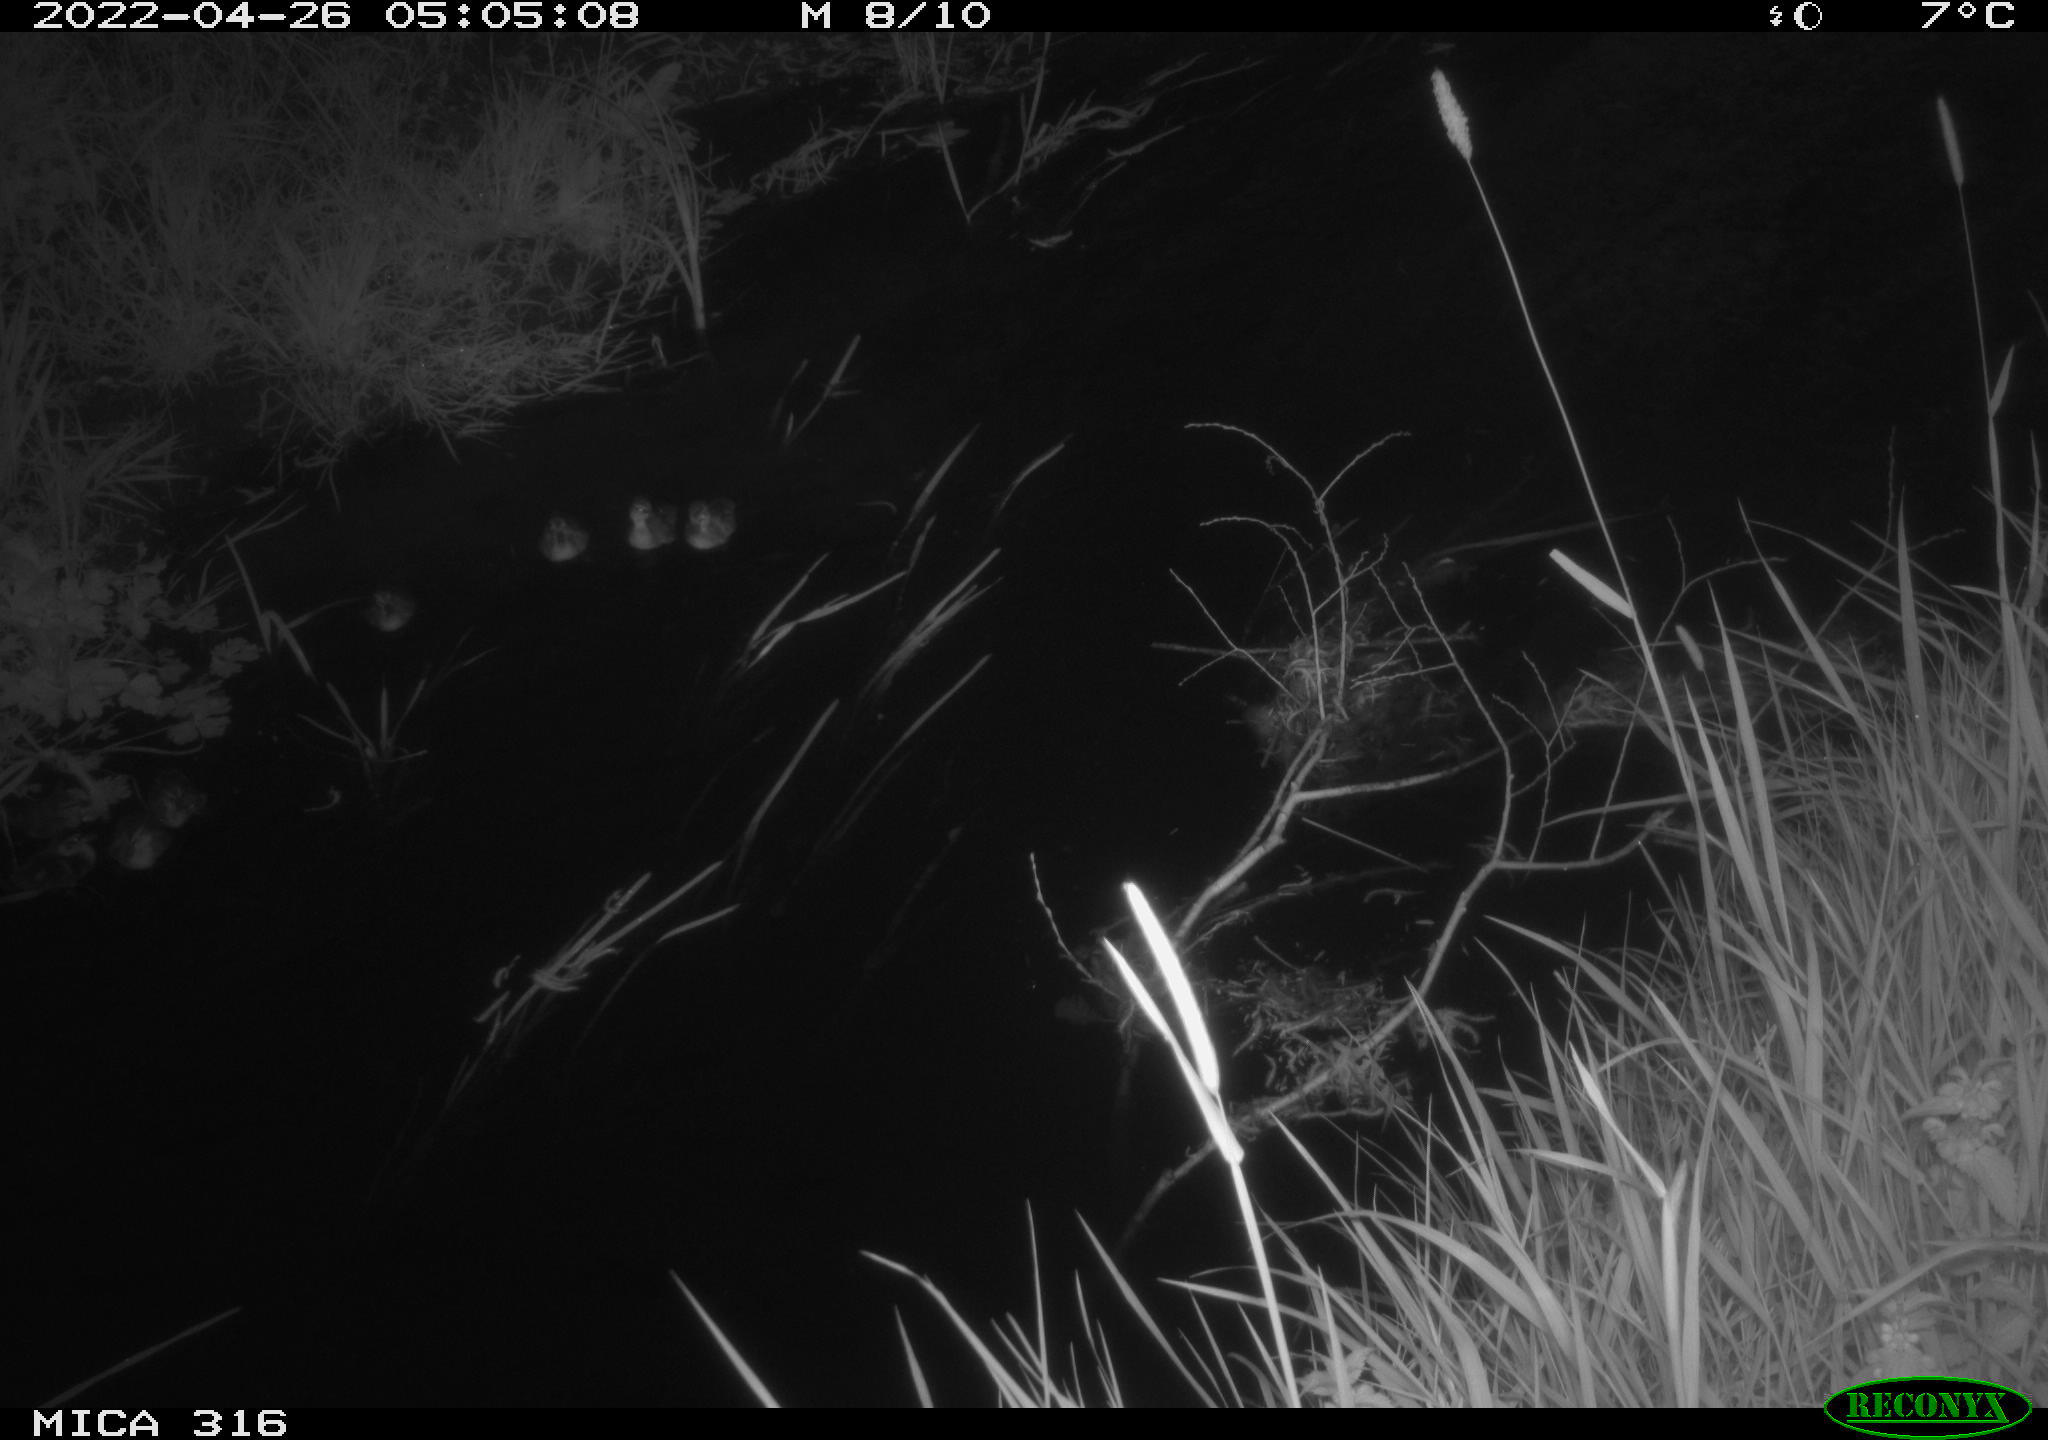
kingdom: Animalia
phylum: Chordata
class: Aves
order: Anseriformes
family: Anatidae
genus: Anas
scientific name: Anas platyrhynchos
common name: Mallard
